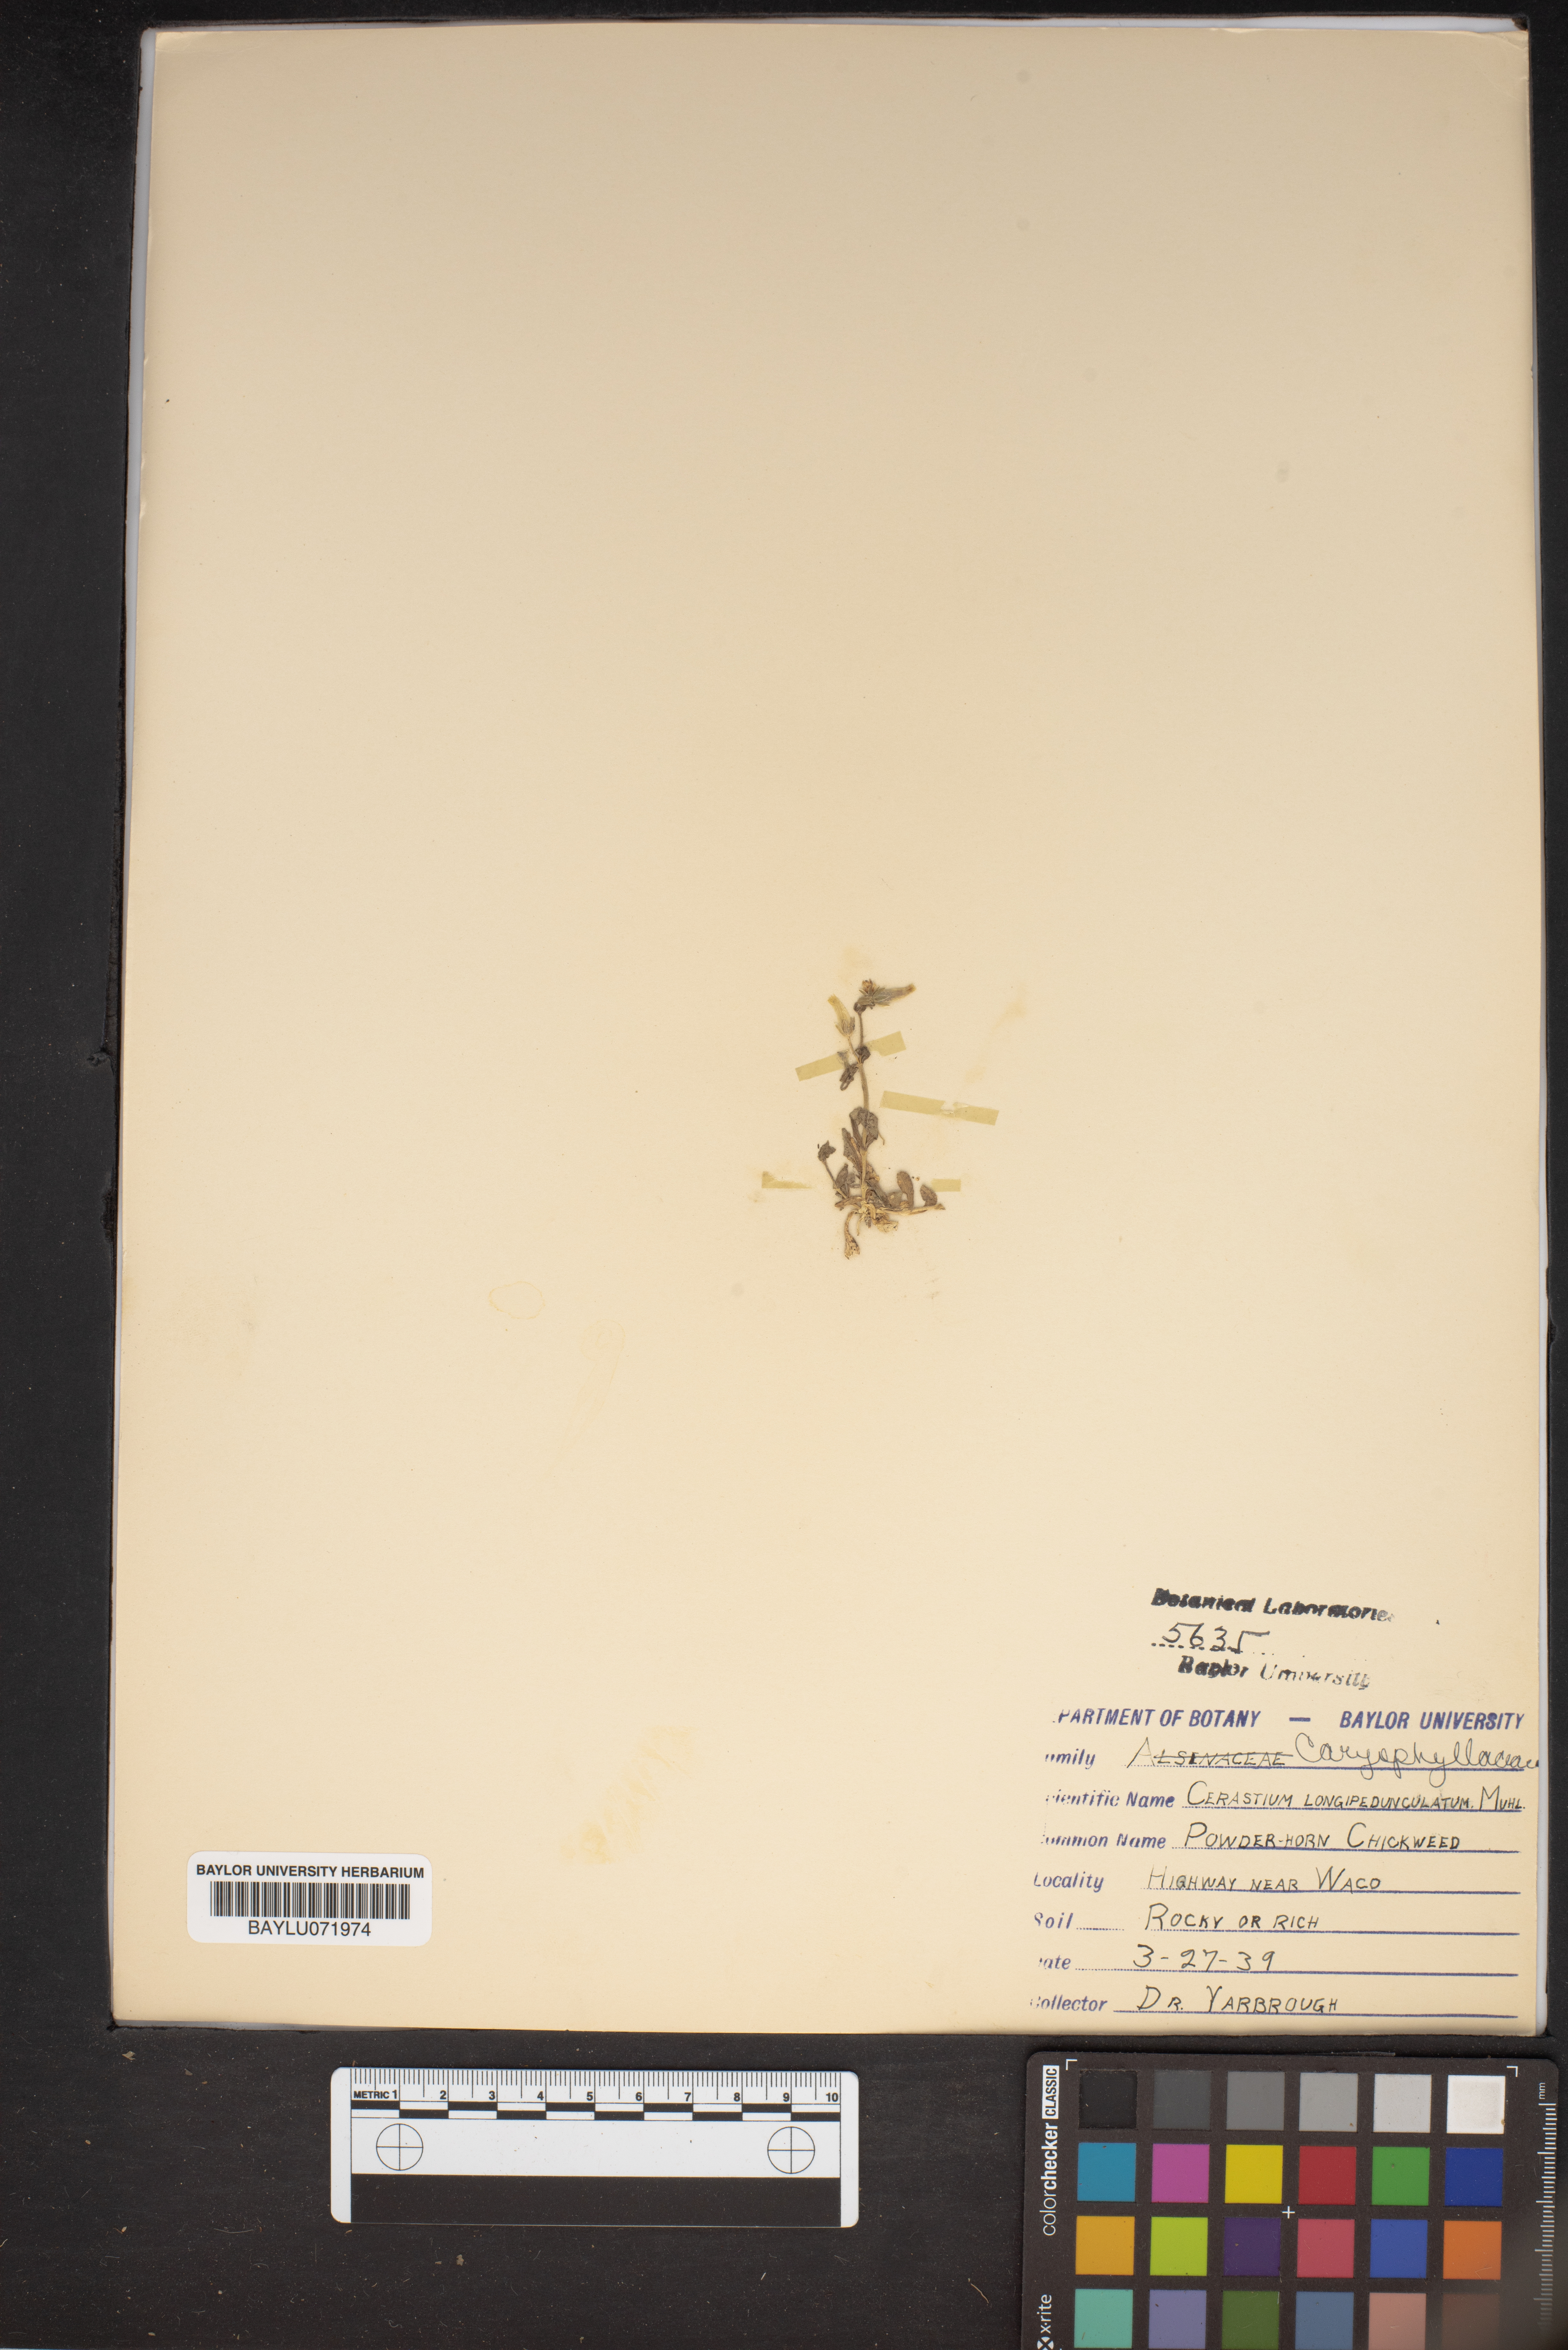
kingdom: Plantae
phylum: Tracheophyta
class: Magnoliopsida
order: Caryophyllales
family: Caryophyllaceae
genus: Cerastium
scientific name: Cerastium nutans
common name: Long-stalked chickweed
